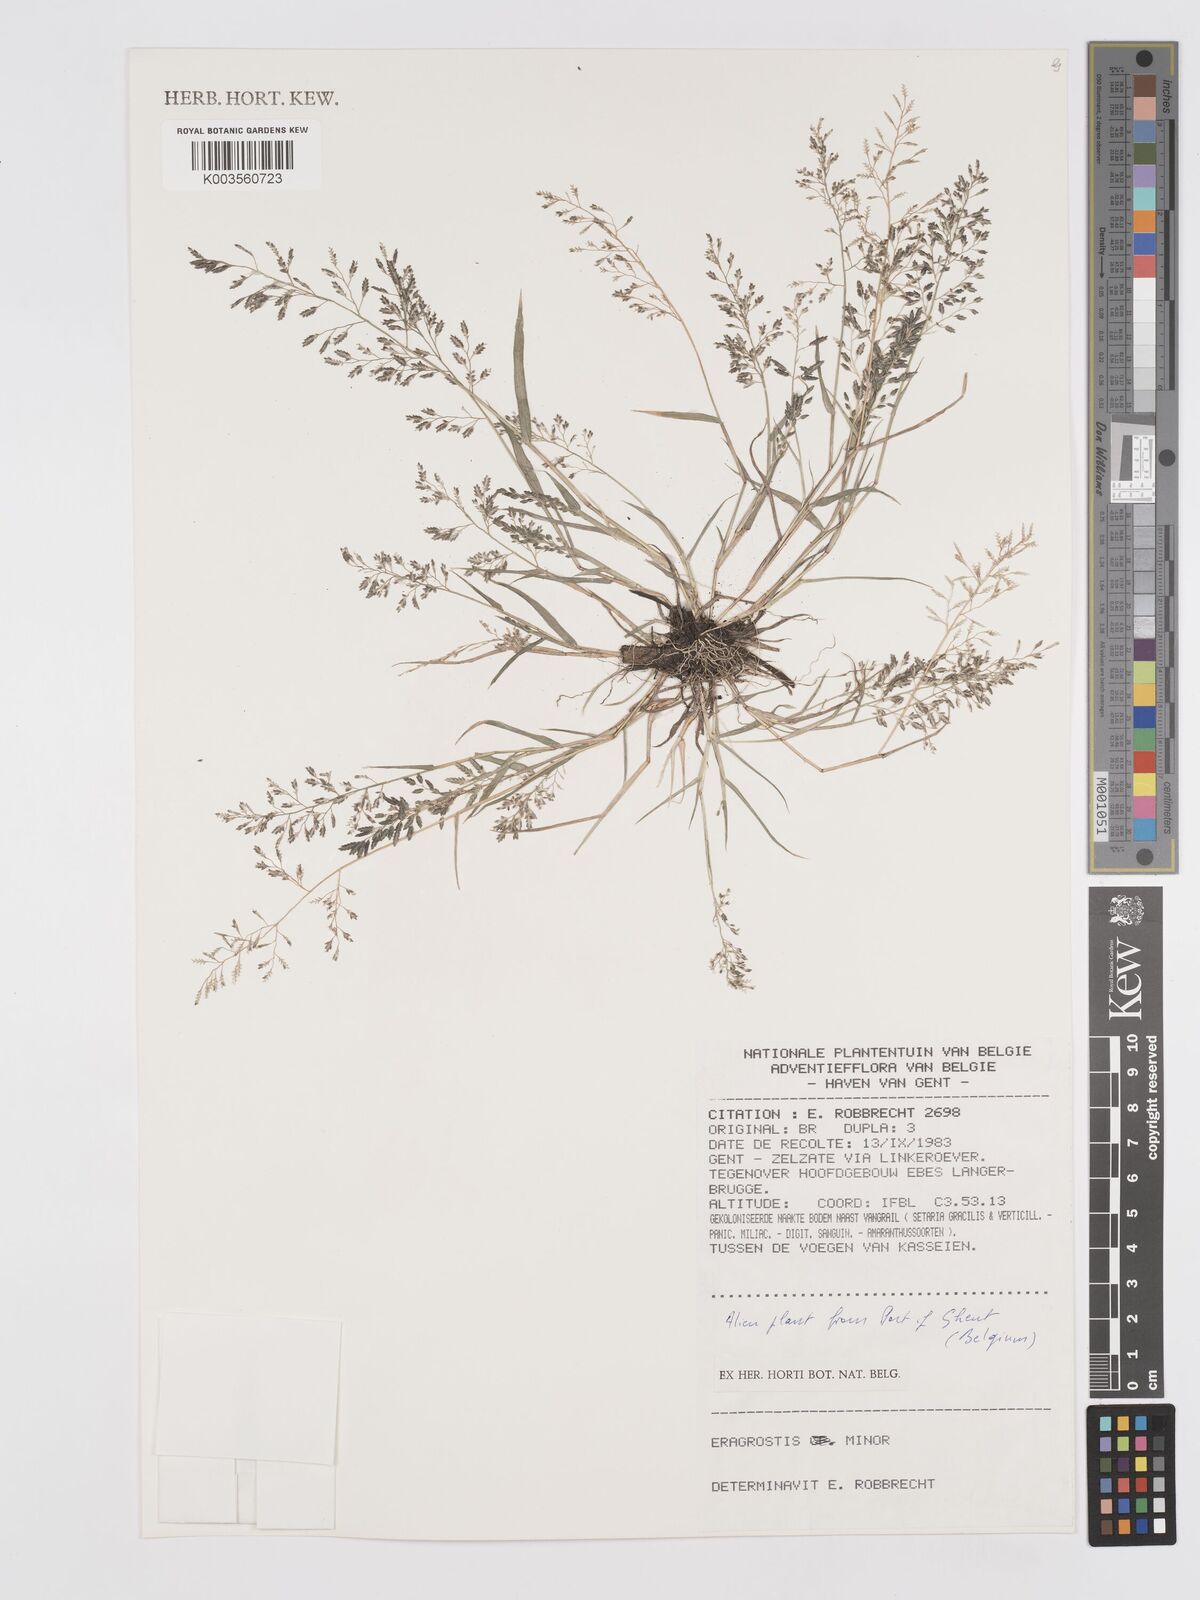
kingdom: Plantae
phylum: Tracheophyta
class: Liliopsida
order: Poales
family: Poaceae
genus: Eragrostis
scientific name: Eragrostis minor
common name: Small love-grass
